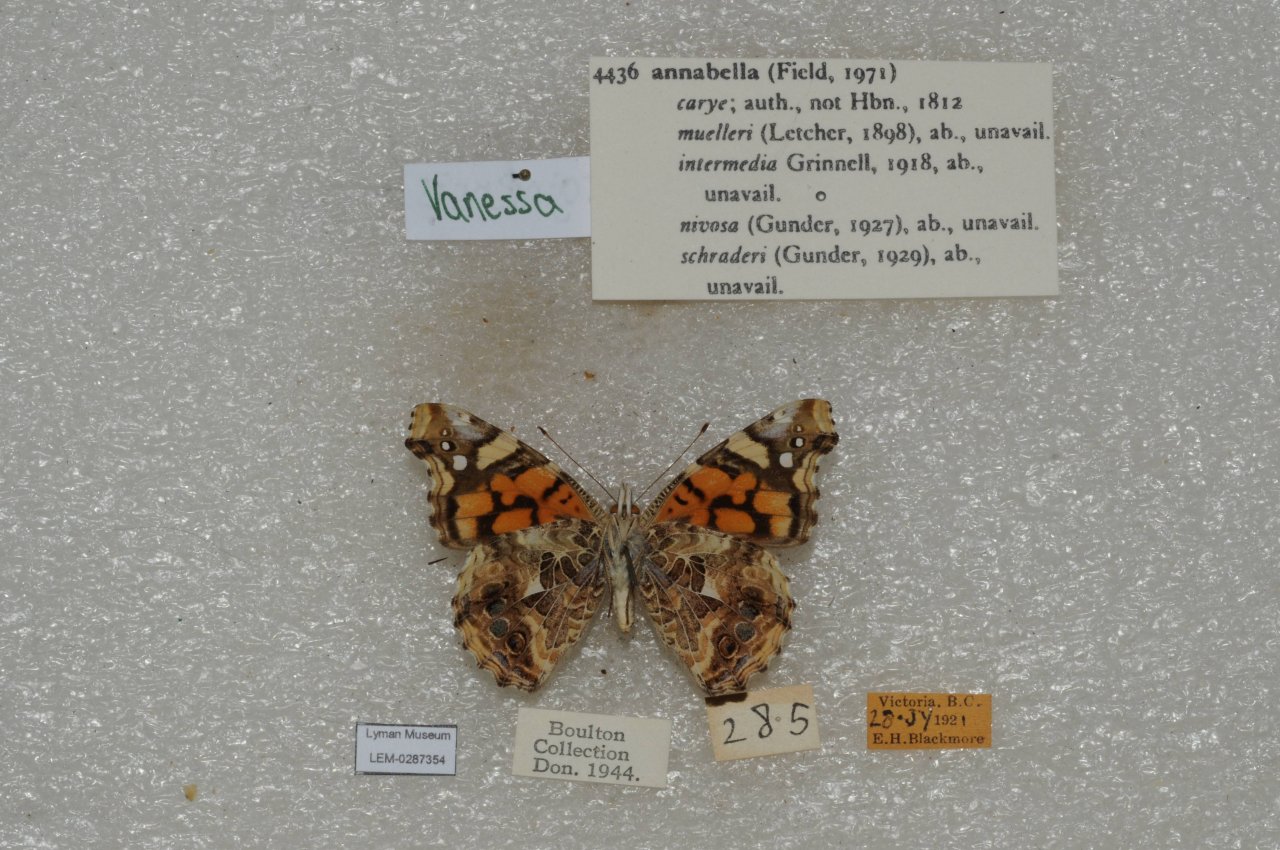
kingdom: Animalia
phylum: Arthropoda
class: Insecta
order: Lepidoptera
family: Nymphalidae
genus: Vanessa
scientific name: Vanessa annabella
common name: West Coast Lady
